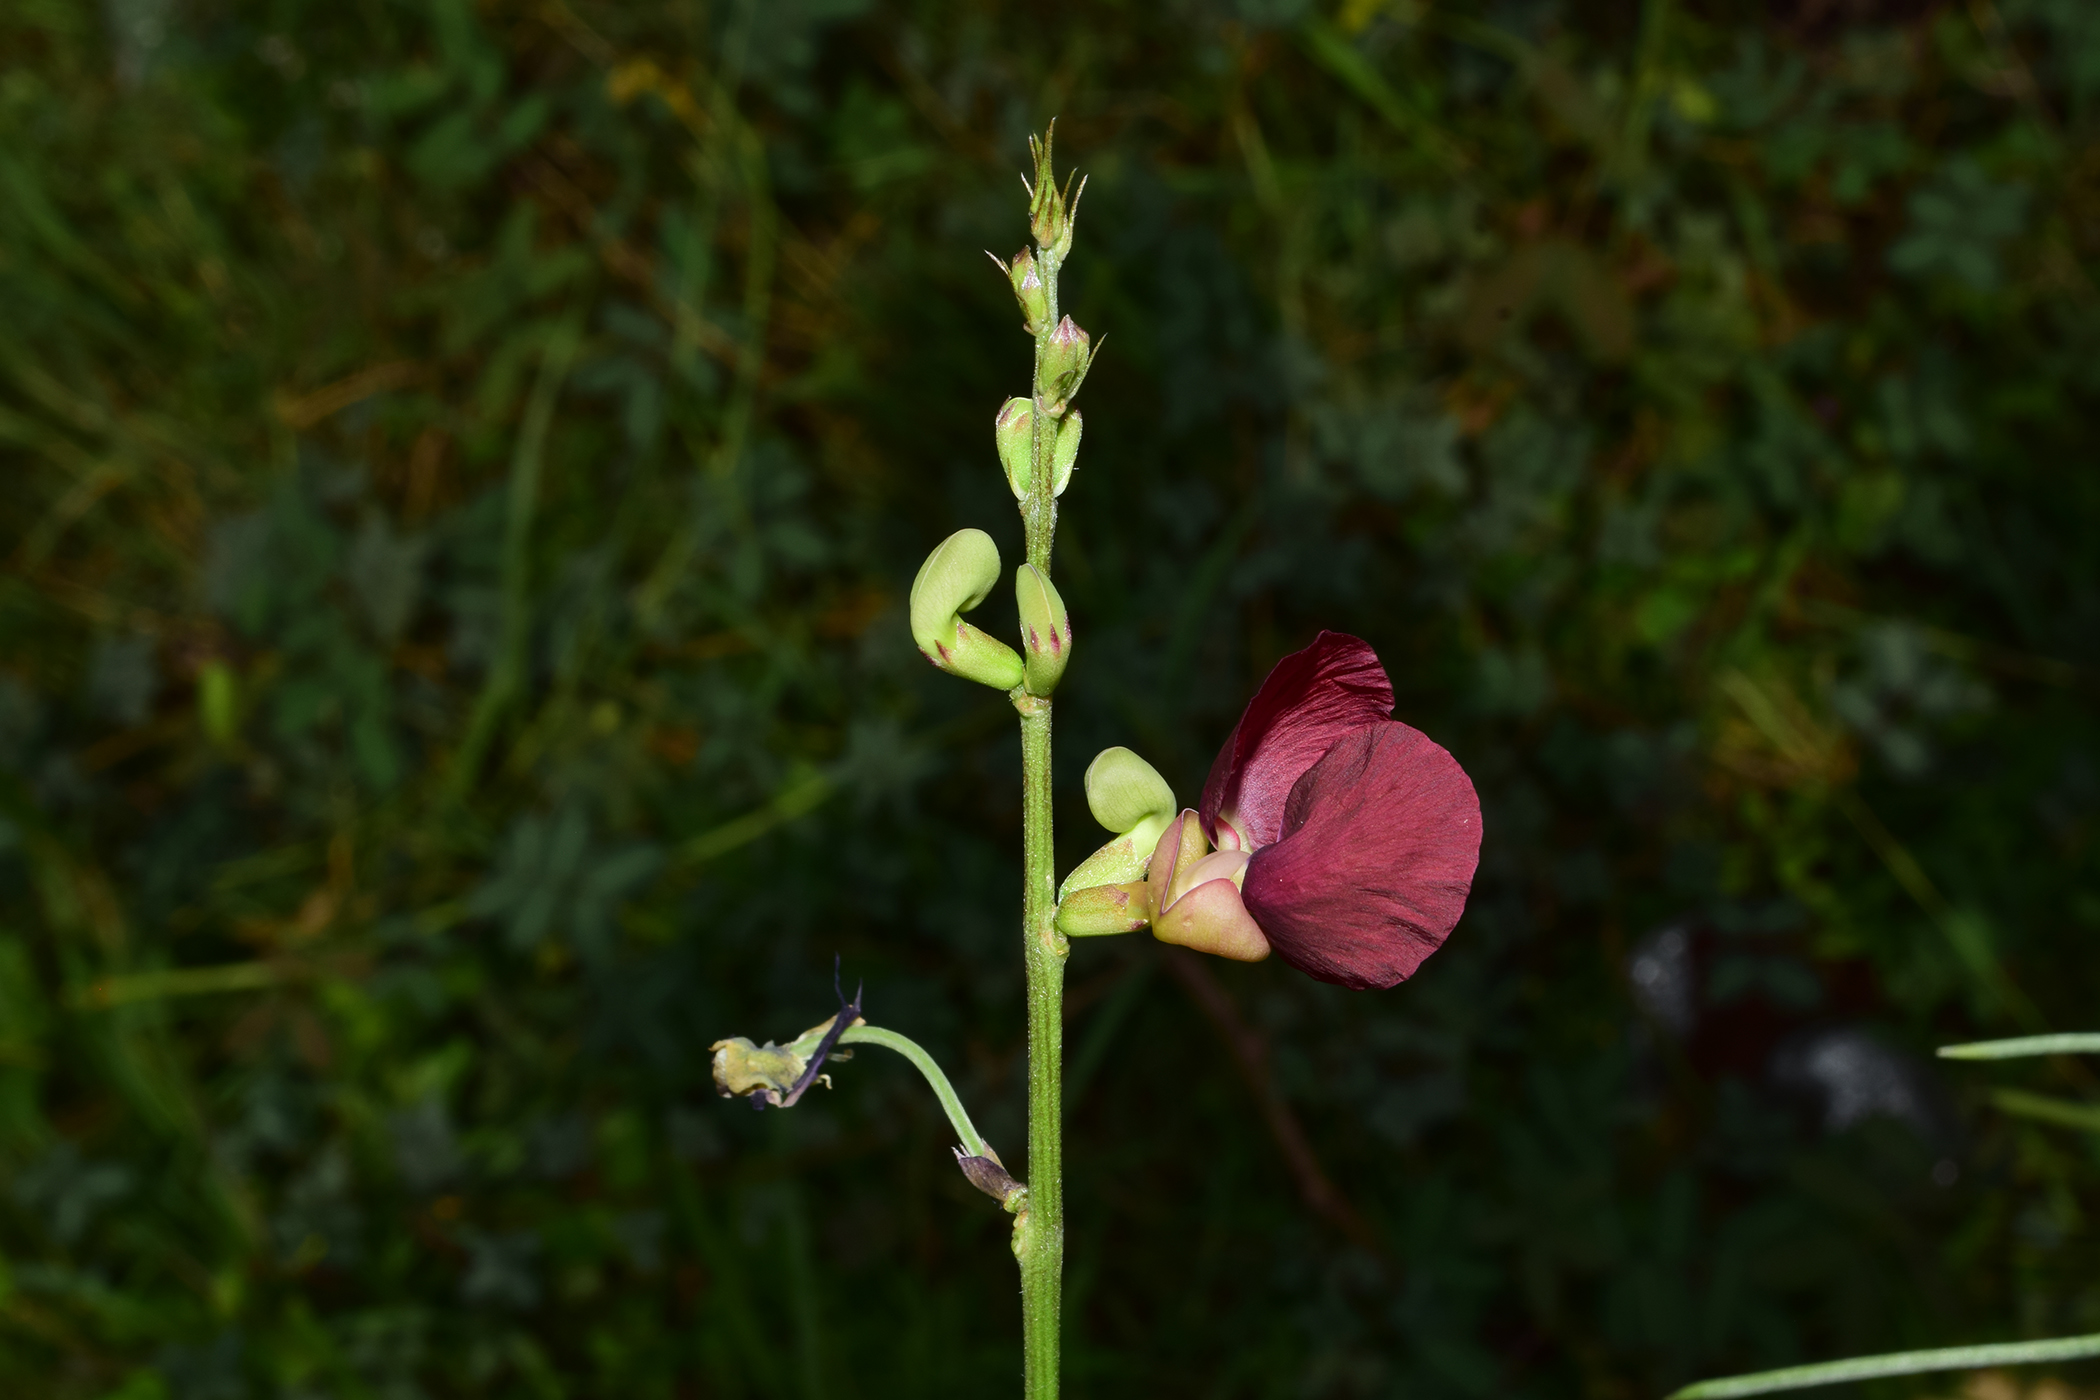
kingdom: Plantae
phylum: Tracheophyta
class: Magnoliopsida
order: Fabales
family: Fabaceae
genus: Macroptilium
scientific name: Macroptilium lathyroides
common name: Wild bushbean
